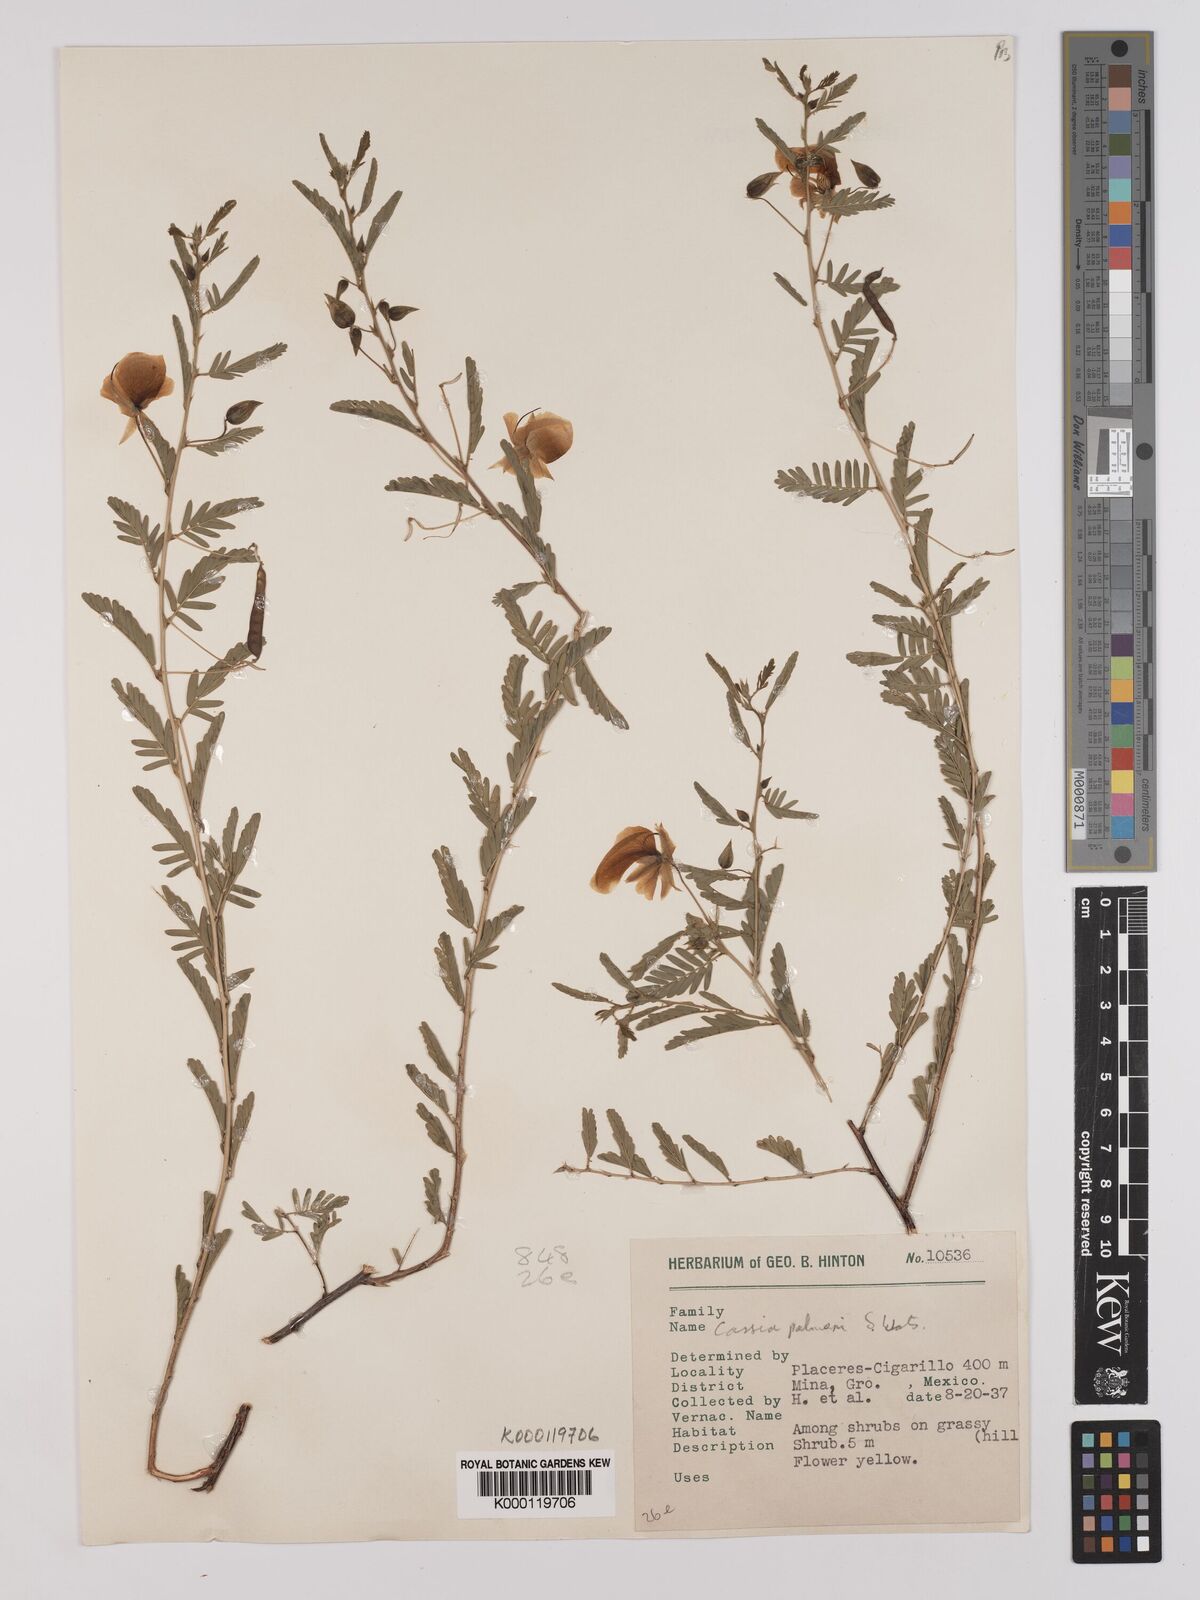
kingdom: Plantae
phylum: Tracheophyta
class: Magnoliopsida
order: Fabales
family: Fabaceae
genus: Chamaecrista
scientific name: Chamaecrista serpens
